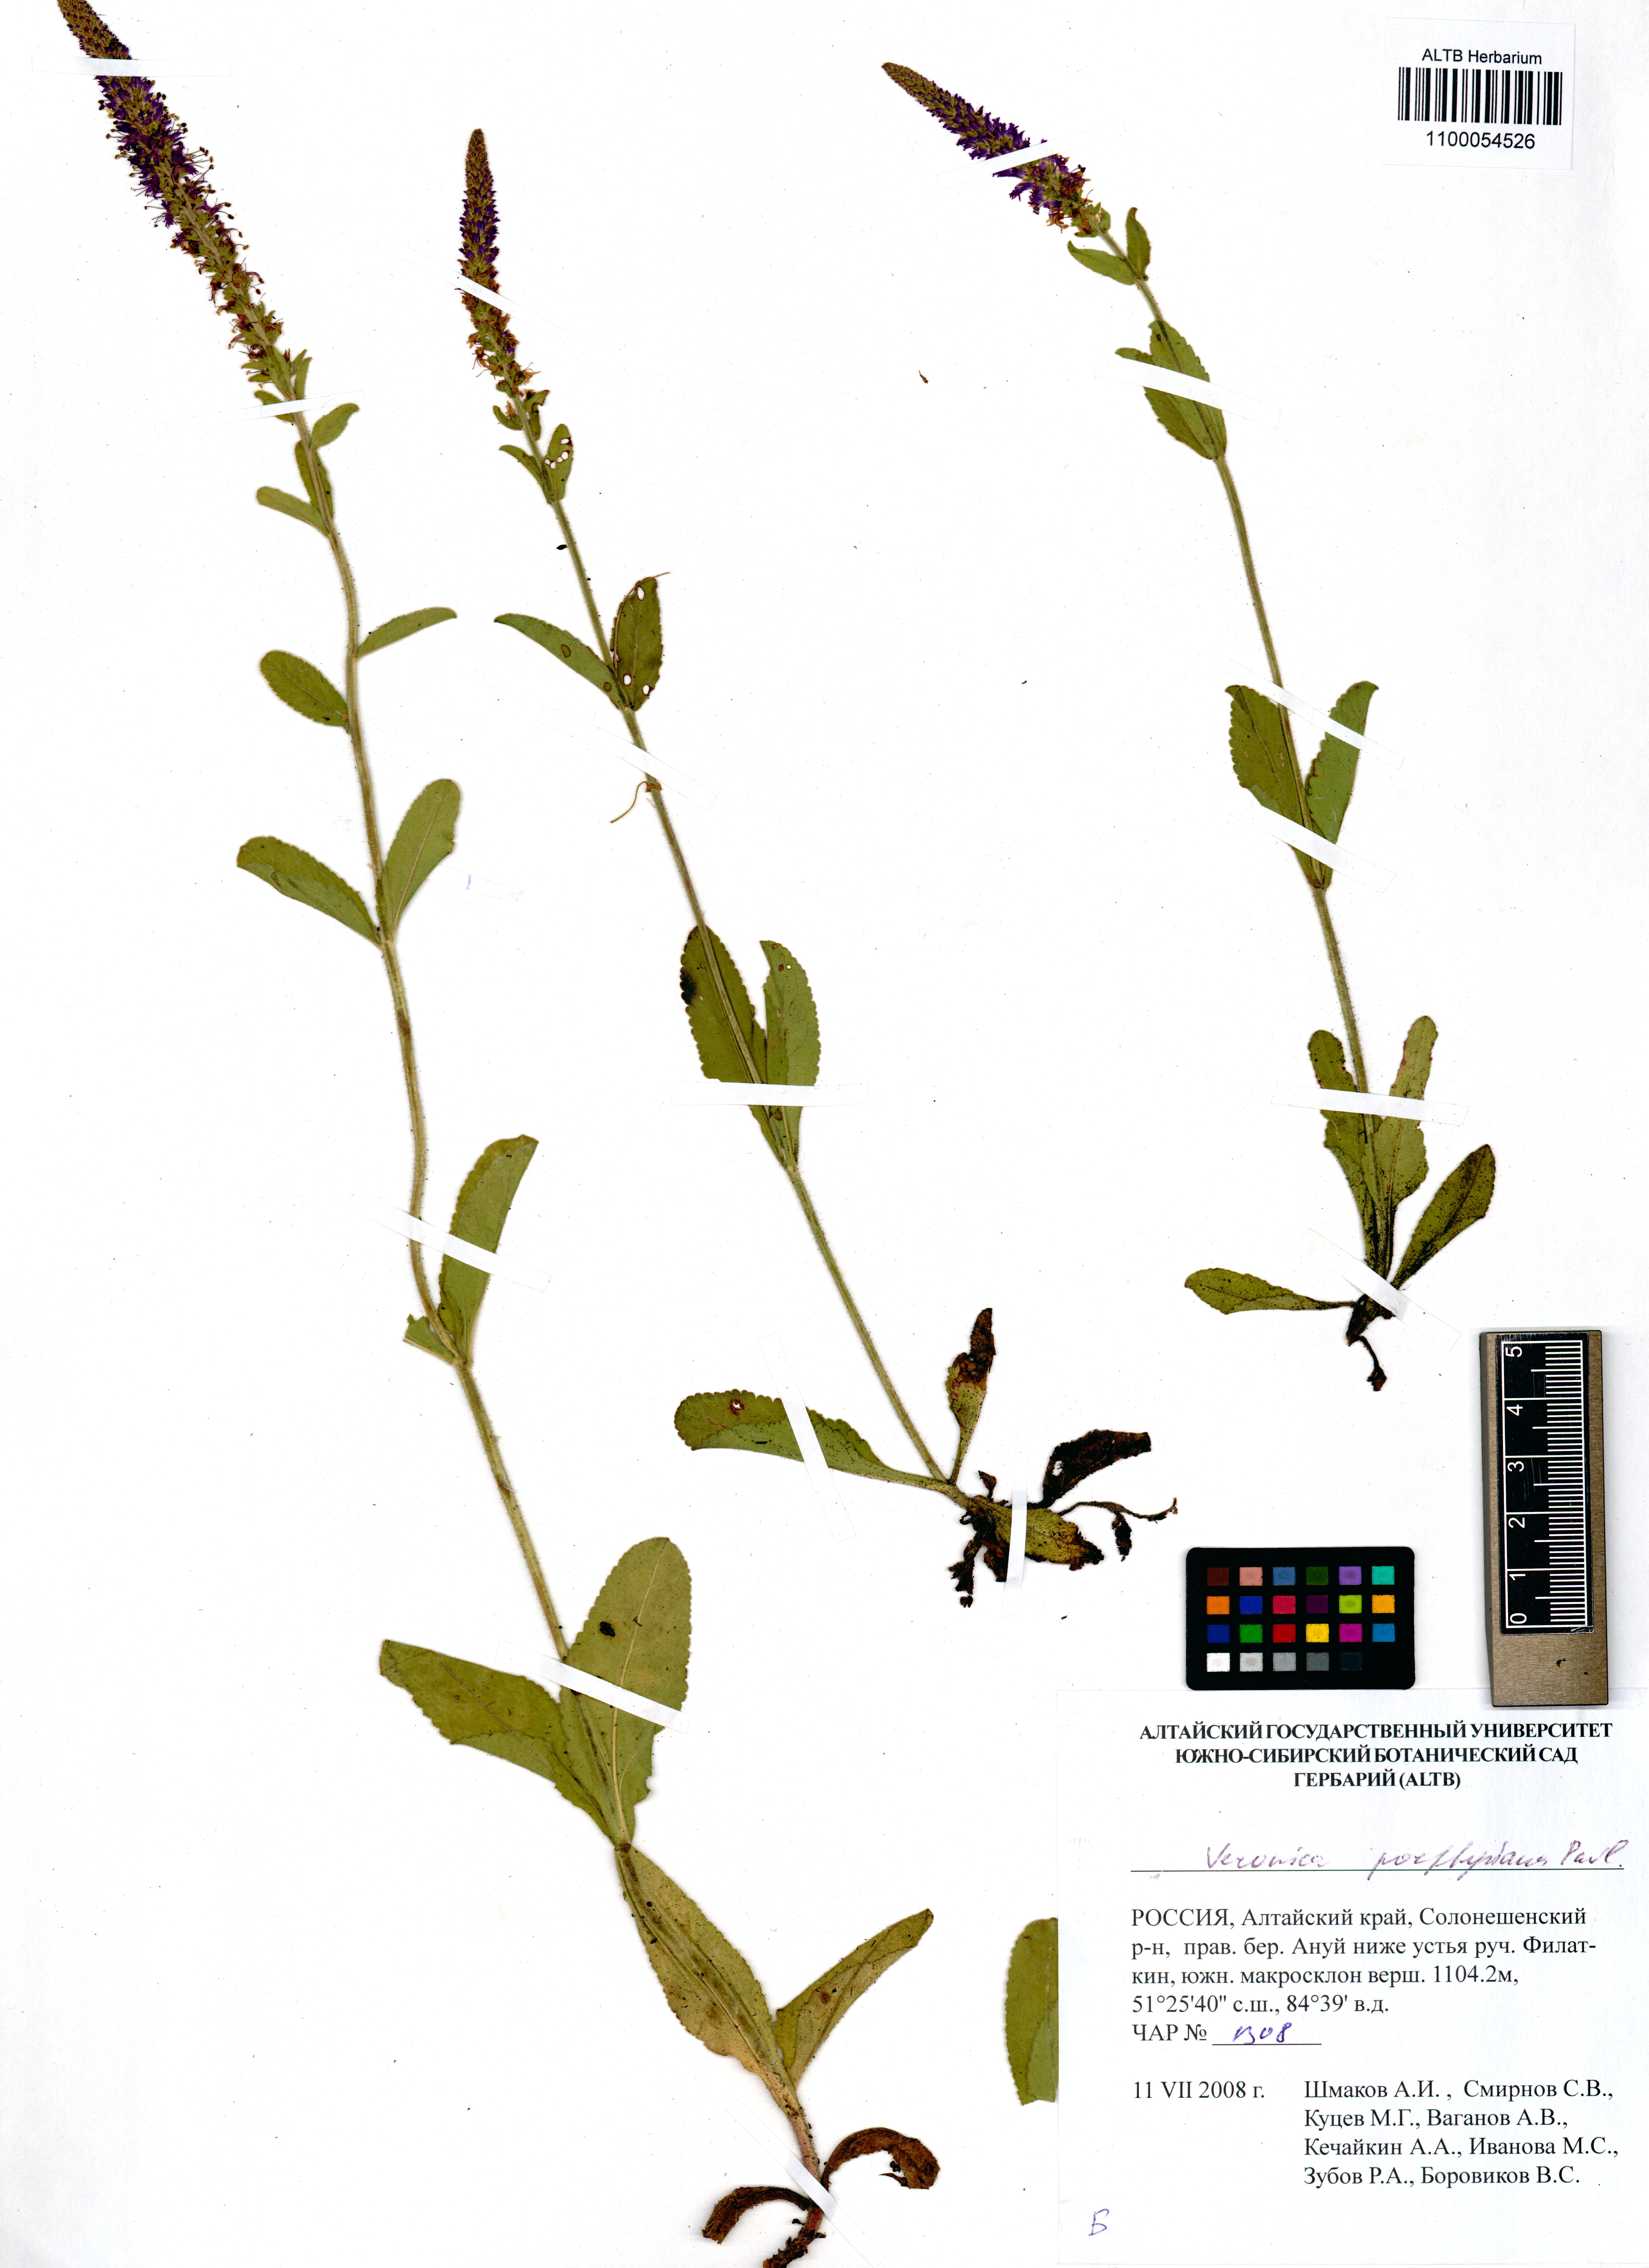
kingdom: Plantae
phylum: Tracheophyta
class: Magnoliopsida
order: Lamiales
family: Plantaginaceae
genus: Veronica
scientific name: Veronica porphyriana
